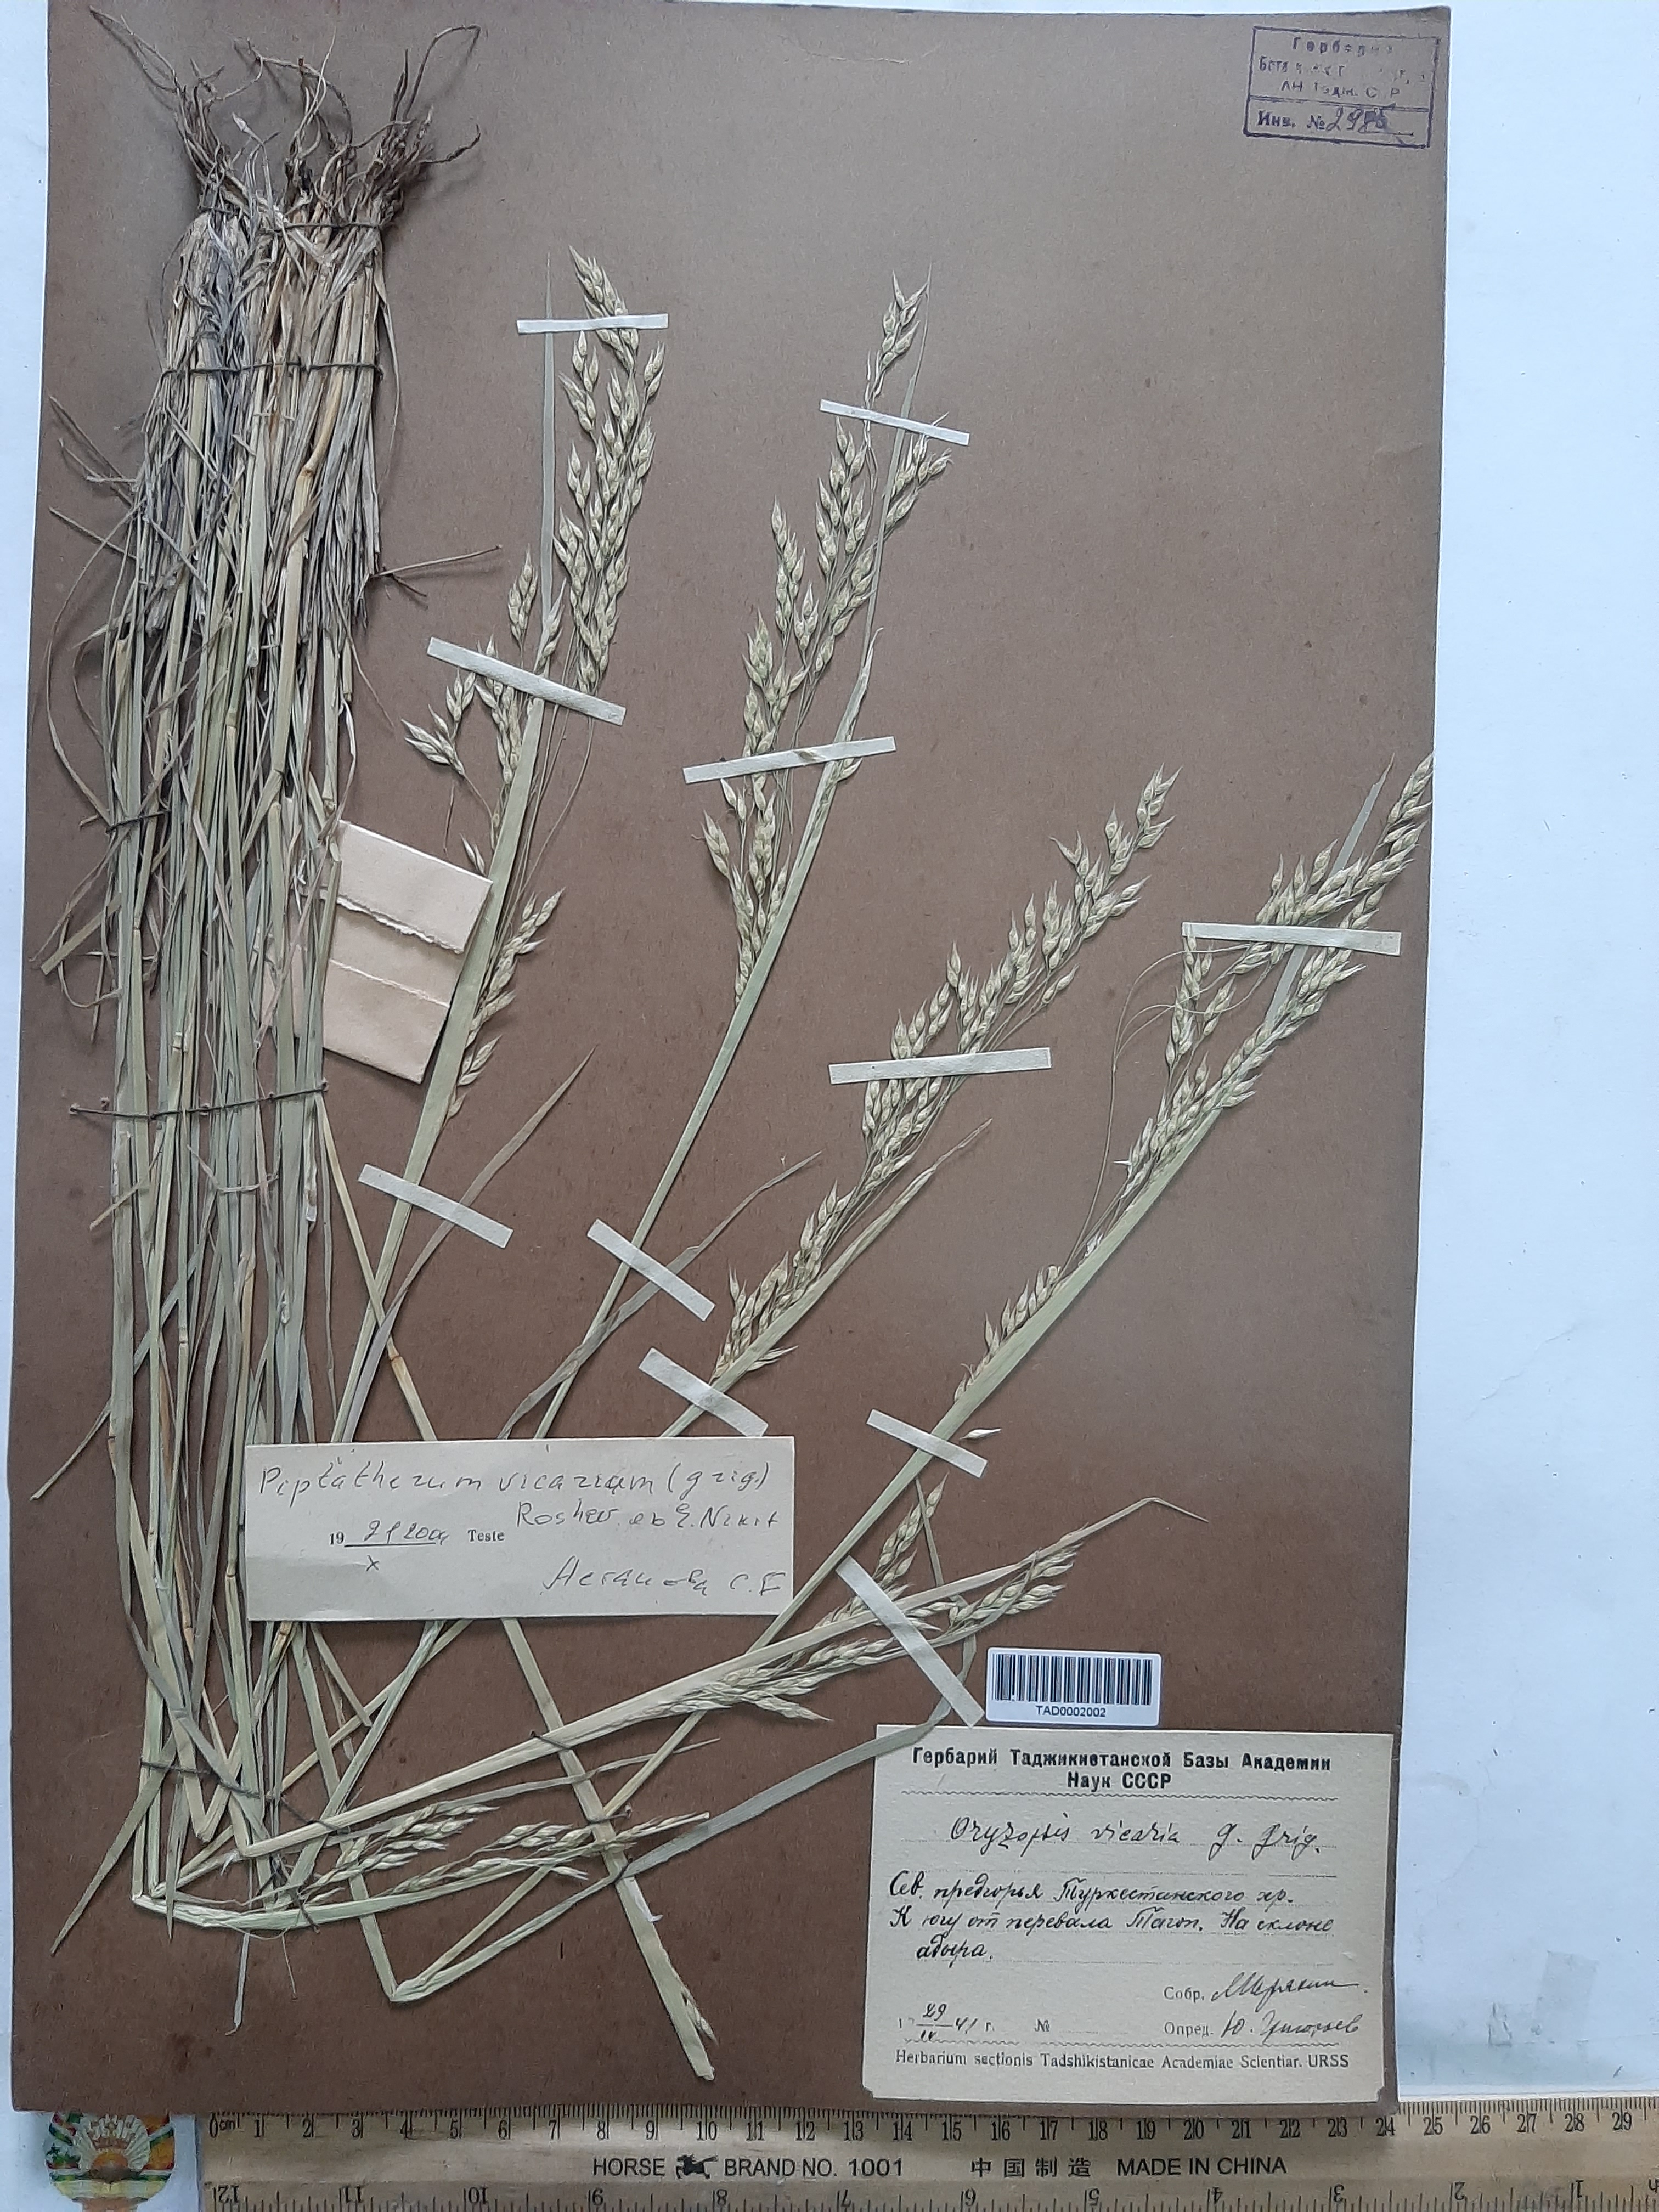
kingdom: Plantae
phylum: Tracheophyta
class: Liliopsida
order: Poales
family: Poaceae
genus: Piptatherum
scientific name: Piptatherum microcarpum
